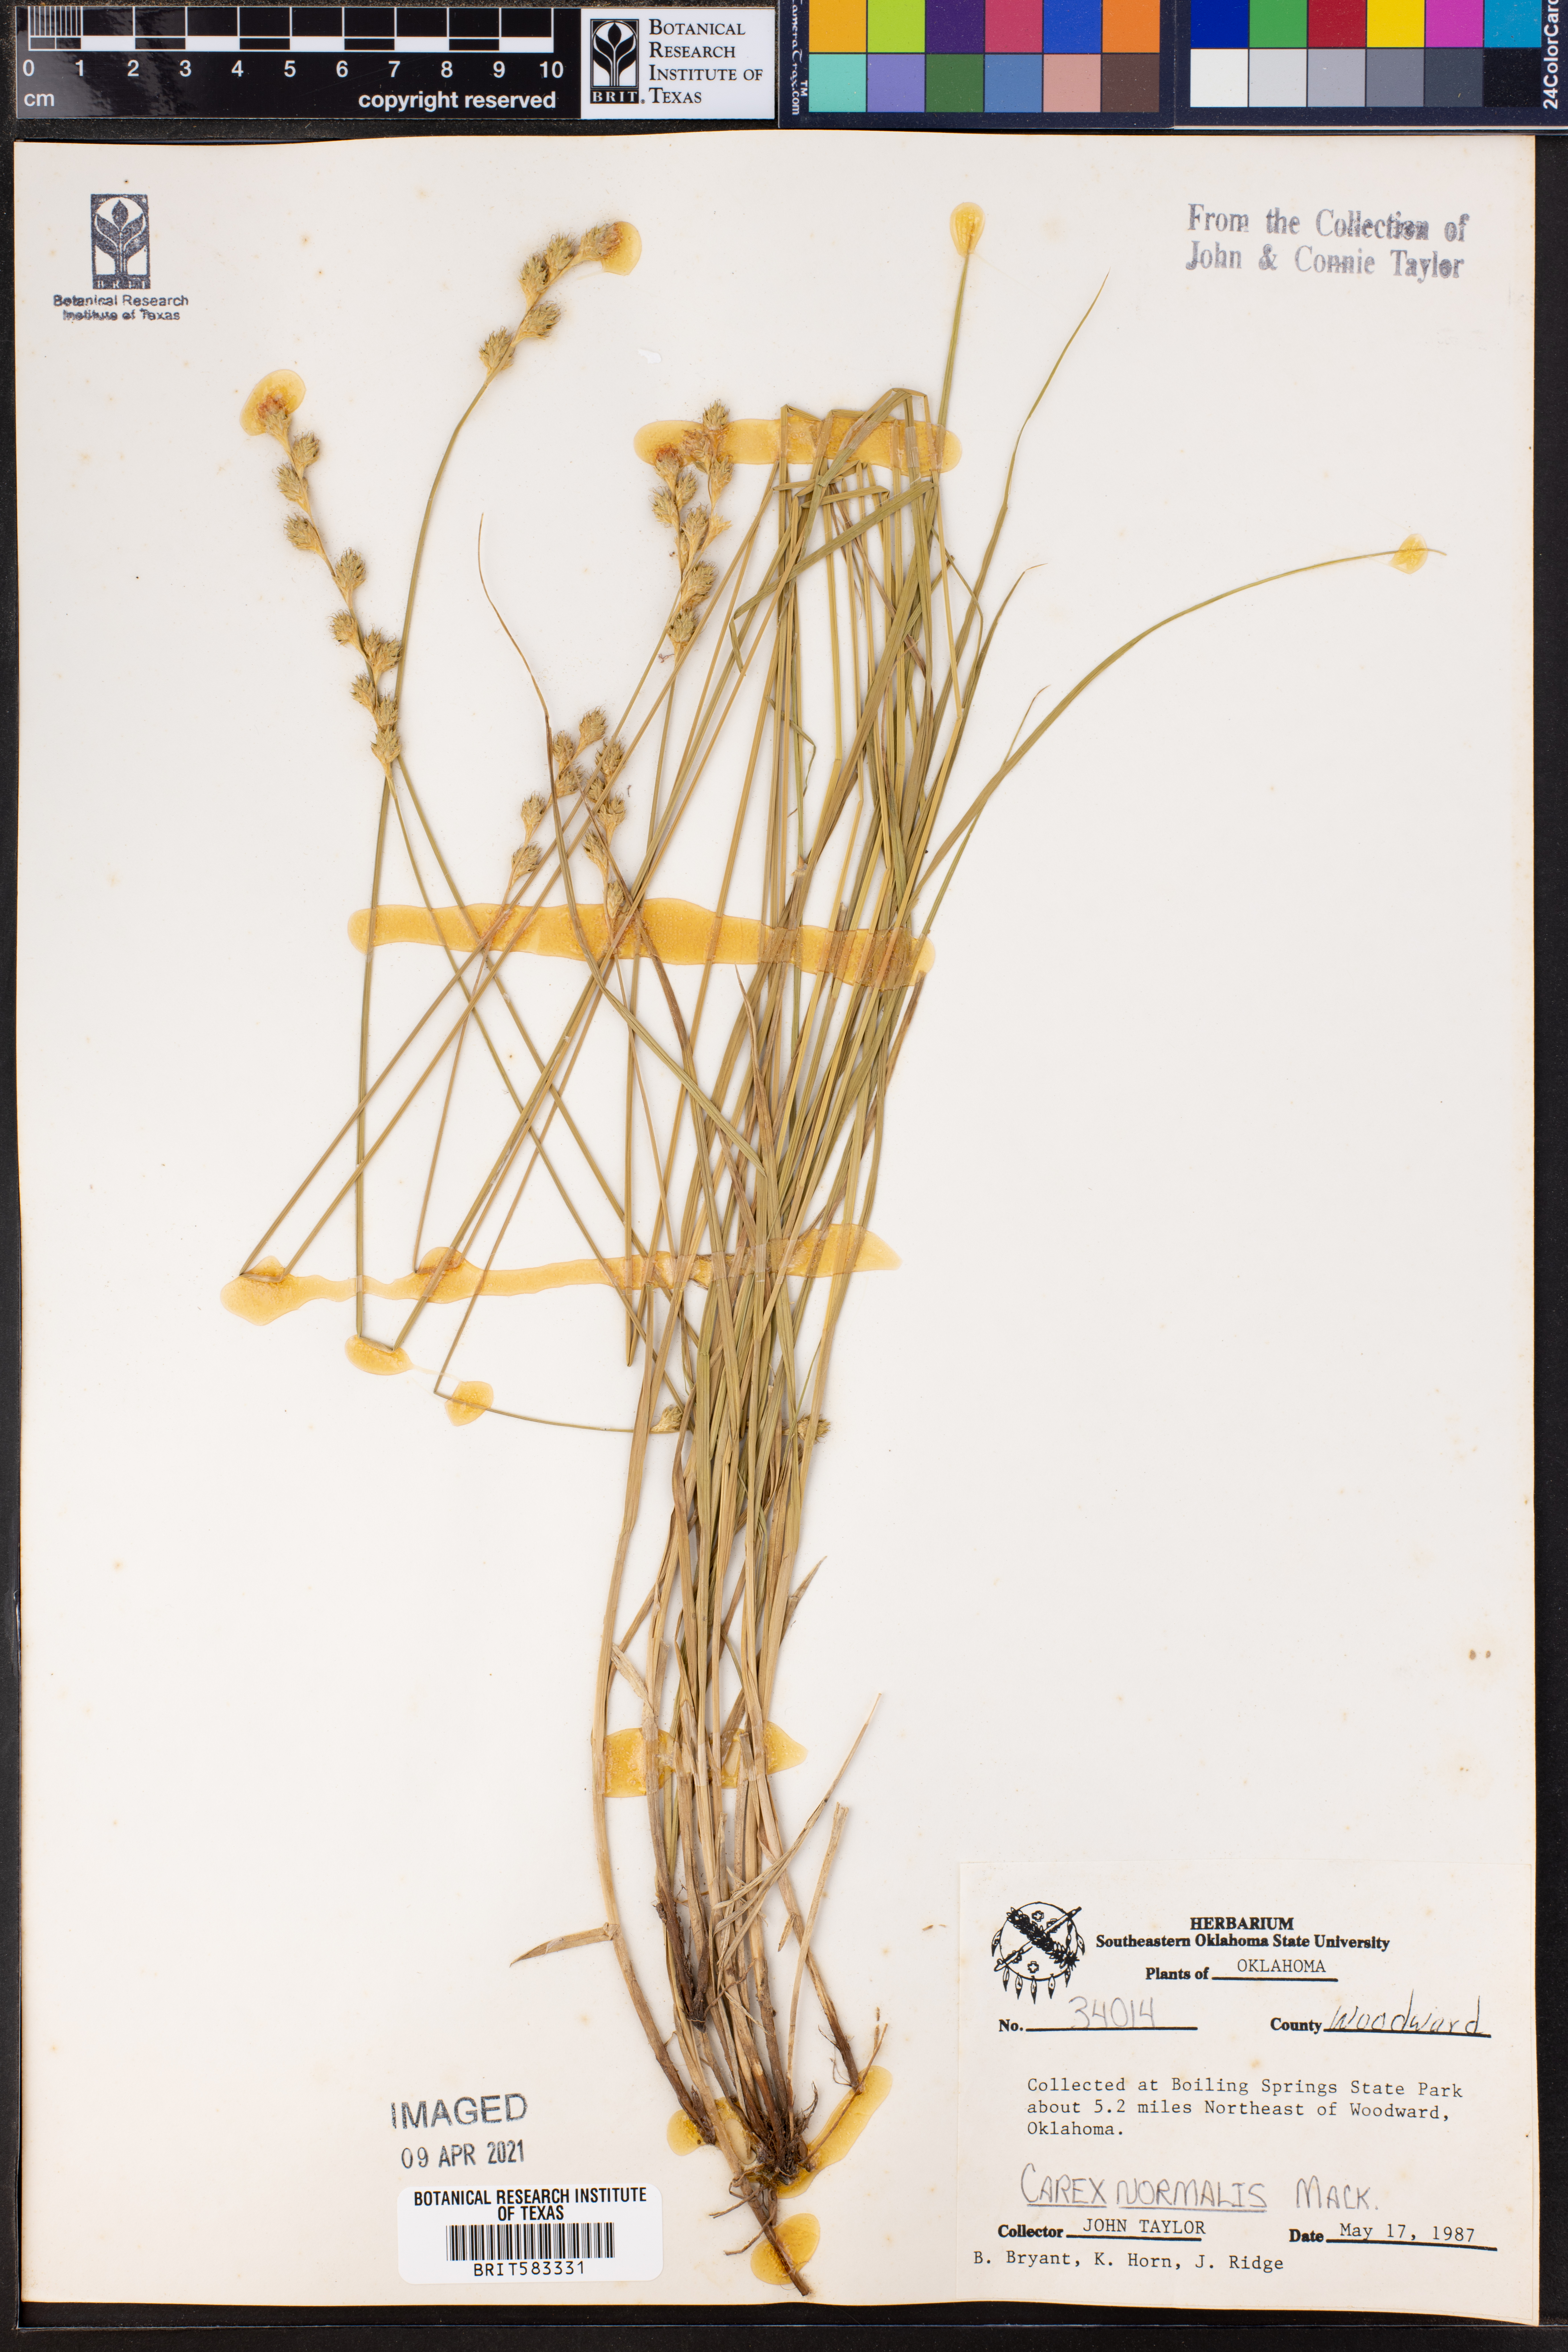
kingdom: Plantae
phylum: Tracheophyta
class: Liliopsida
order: Poales
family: Cyperaceae
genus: Carex
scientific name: Carex normalis
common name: Greater straw sedge
